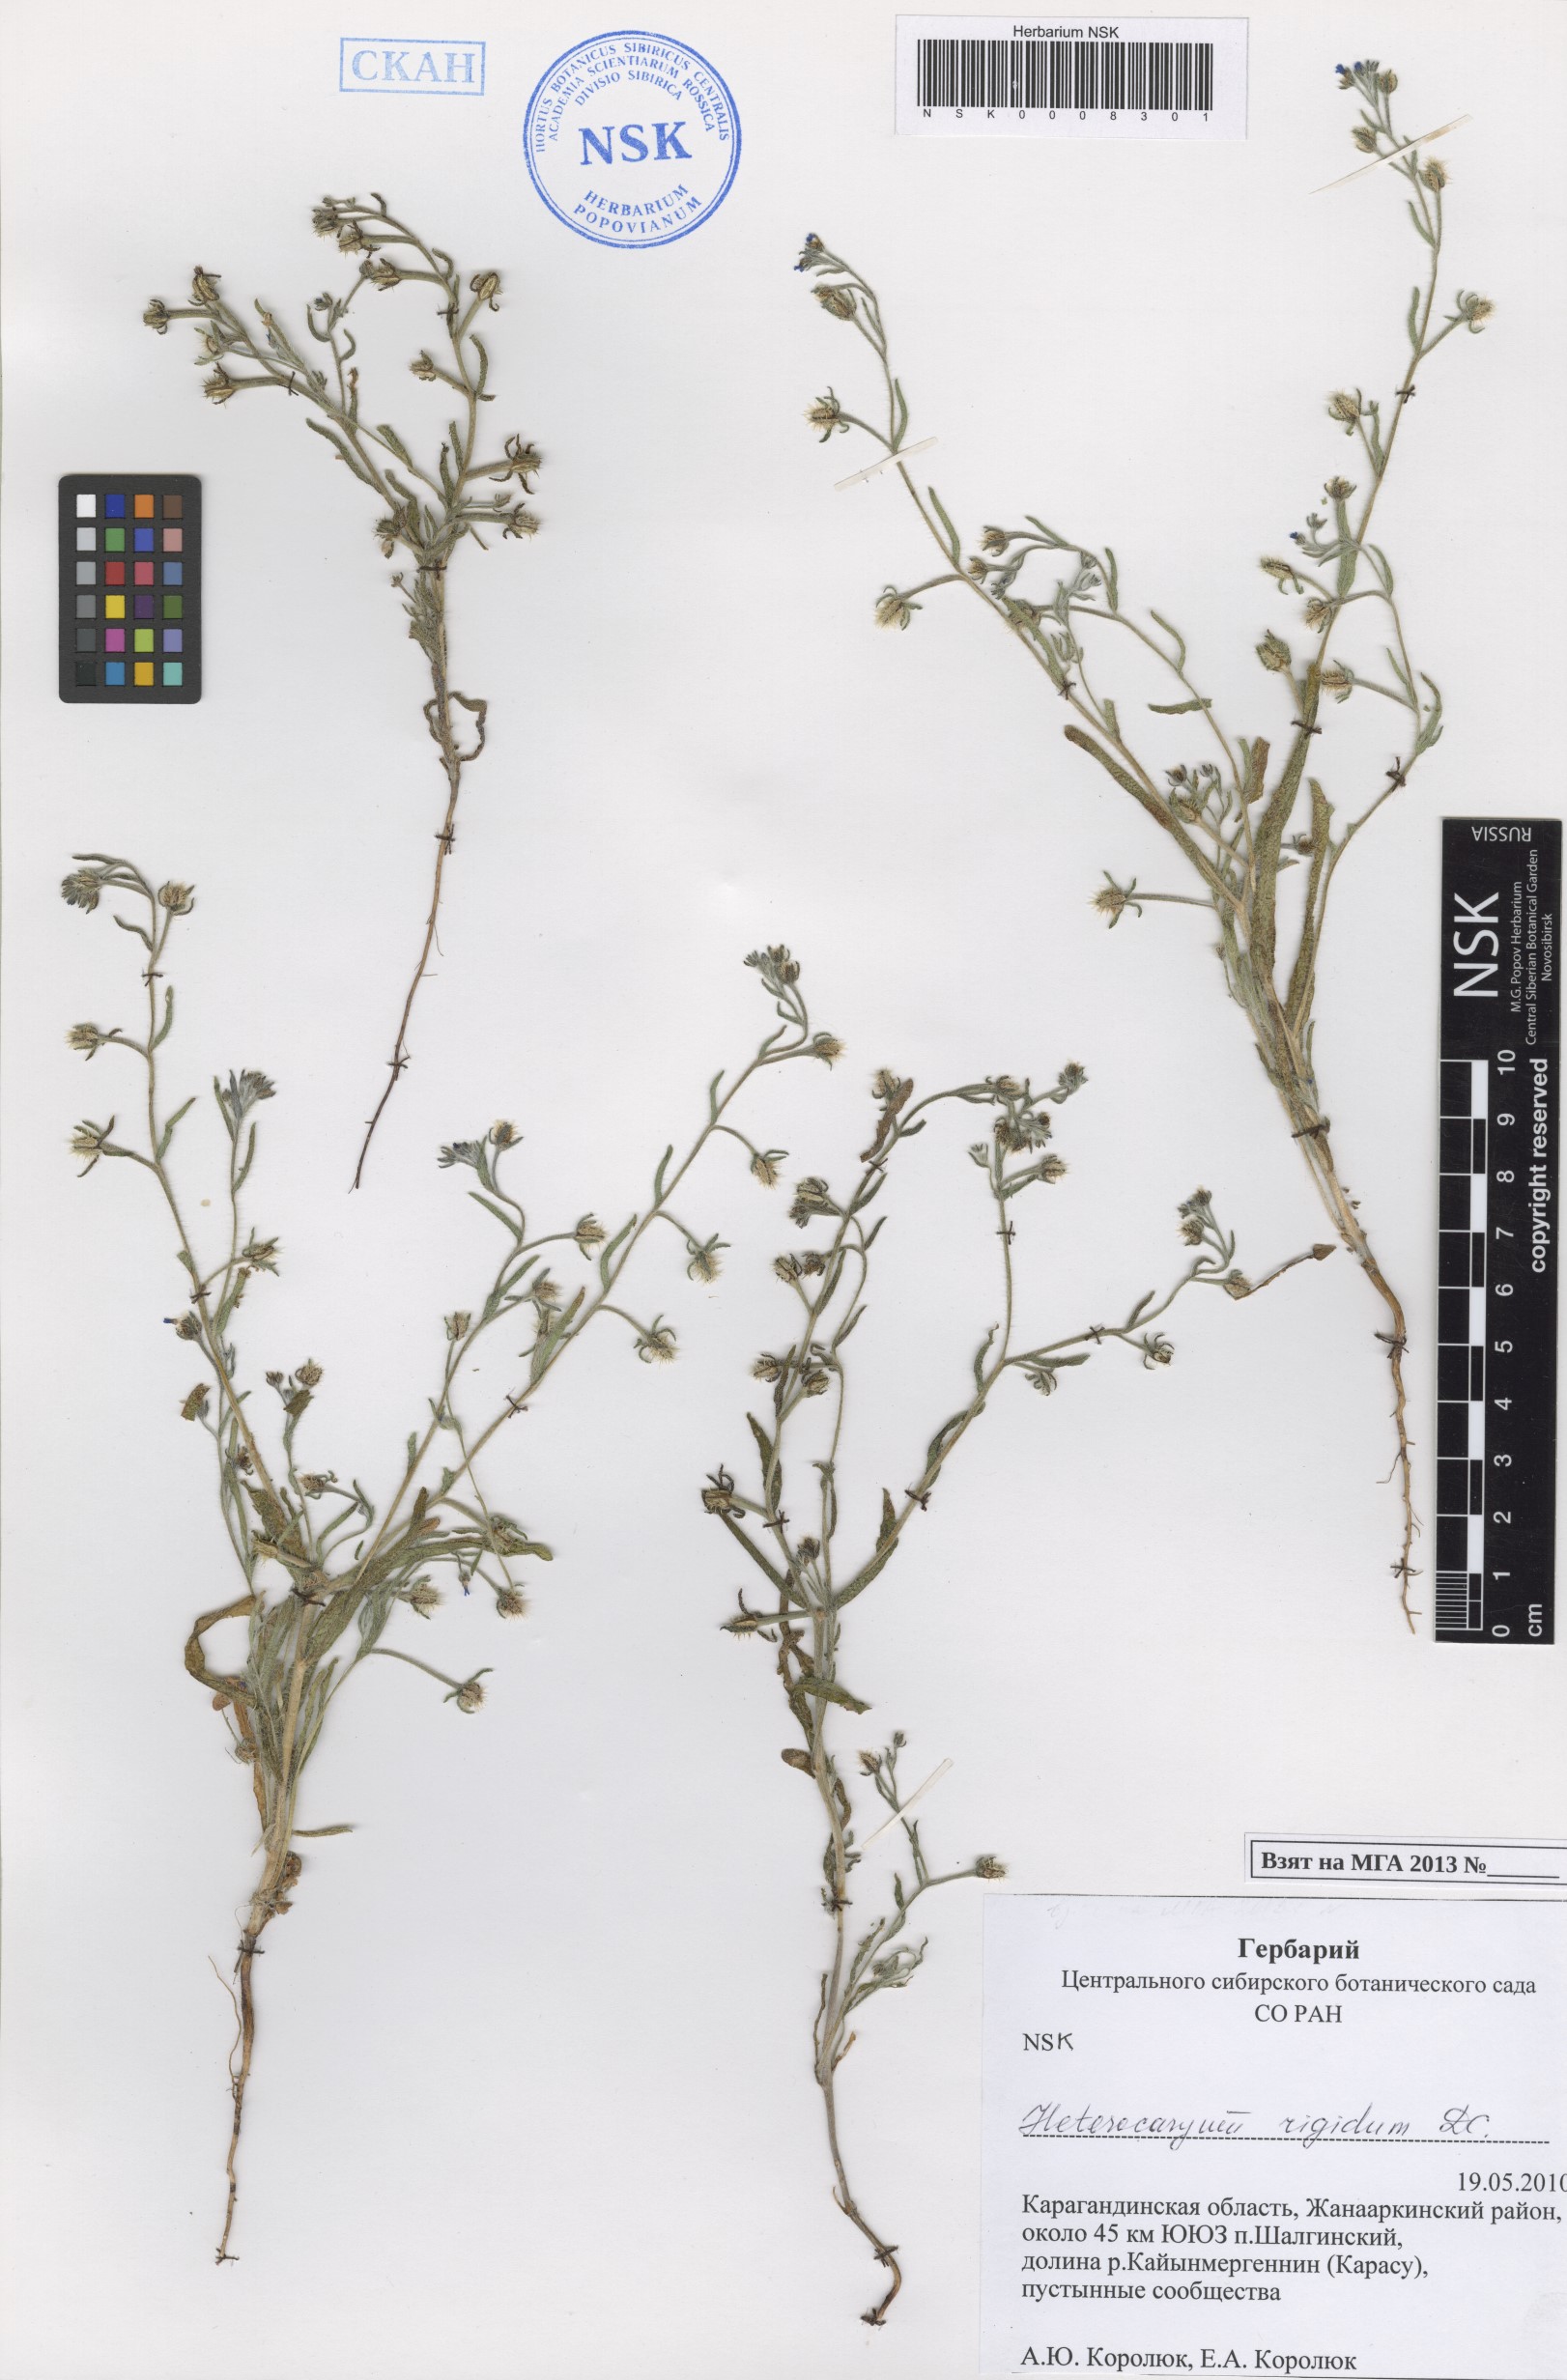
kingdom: Plantae
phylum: Tracheophyta
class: Magnoliopsida
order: Boraginales
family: Boraginaceae
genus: Pseudoheterocaryum
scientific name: Pseudoheterocaryum rigidum
